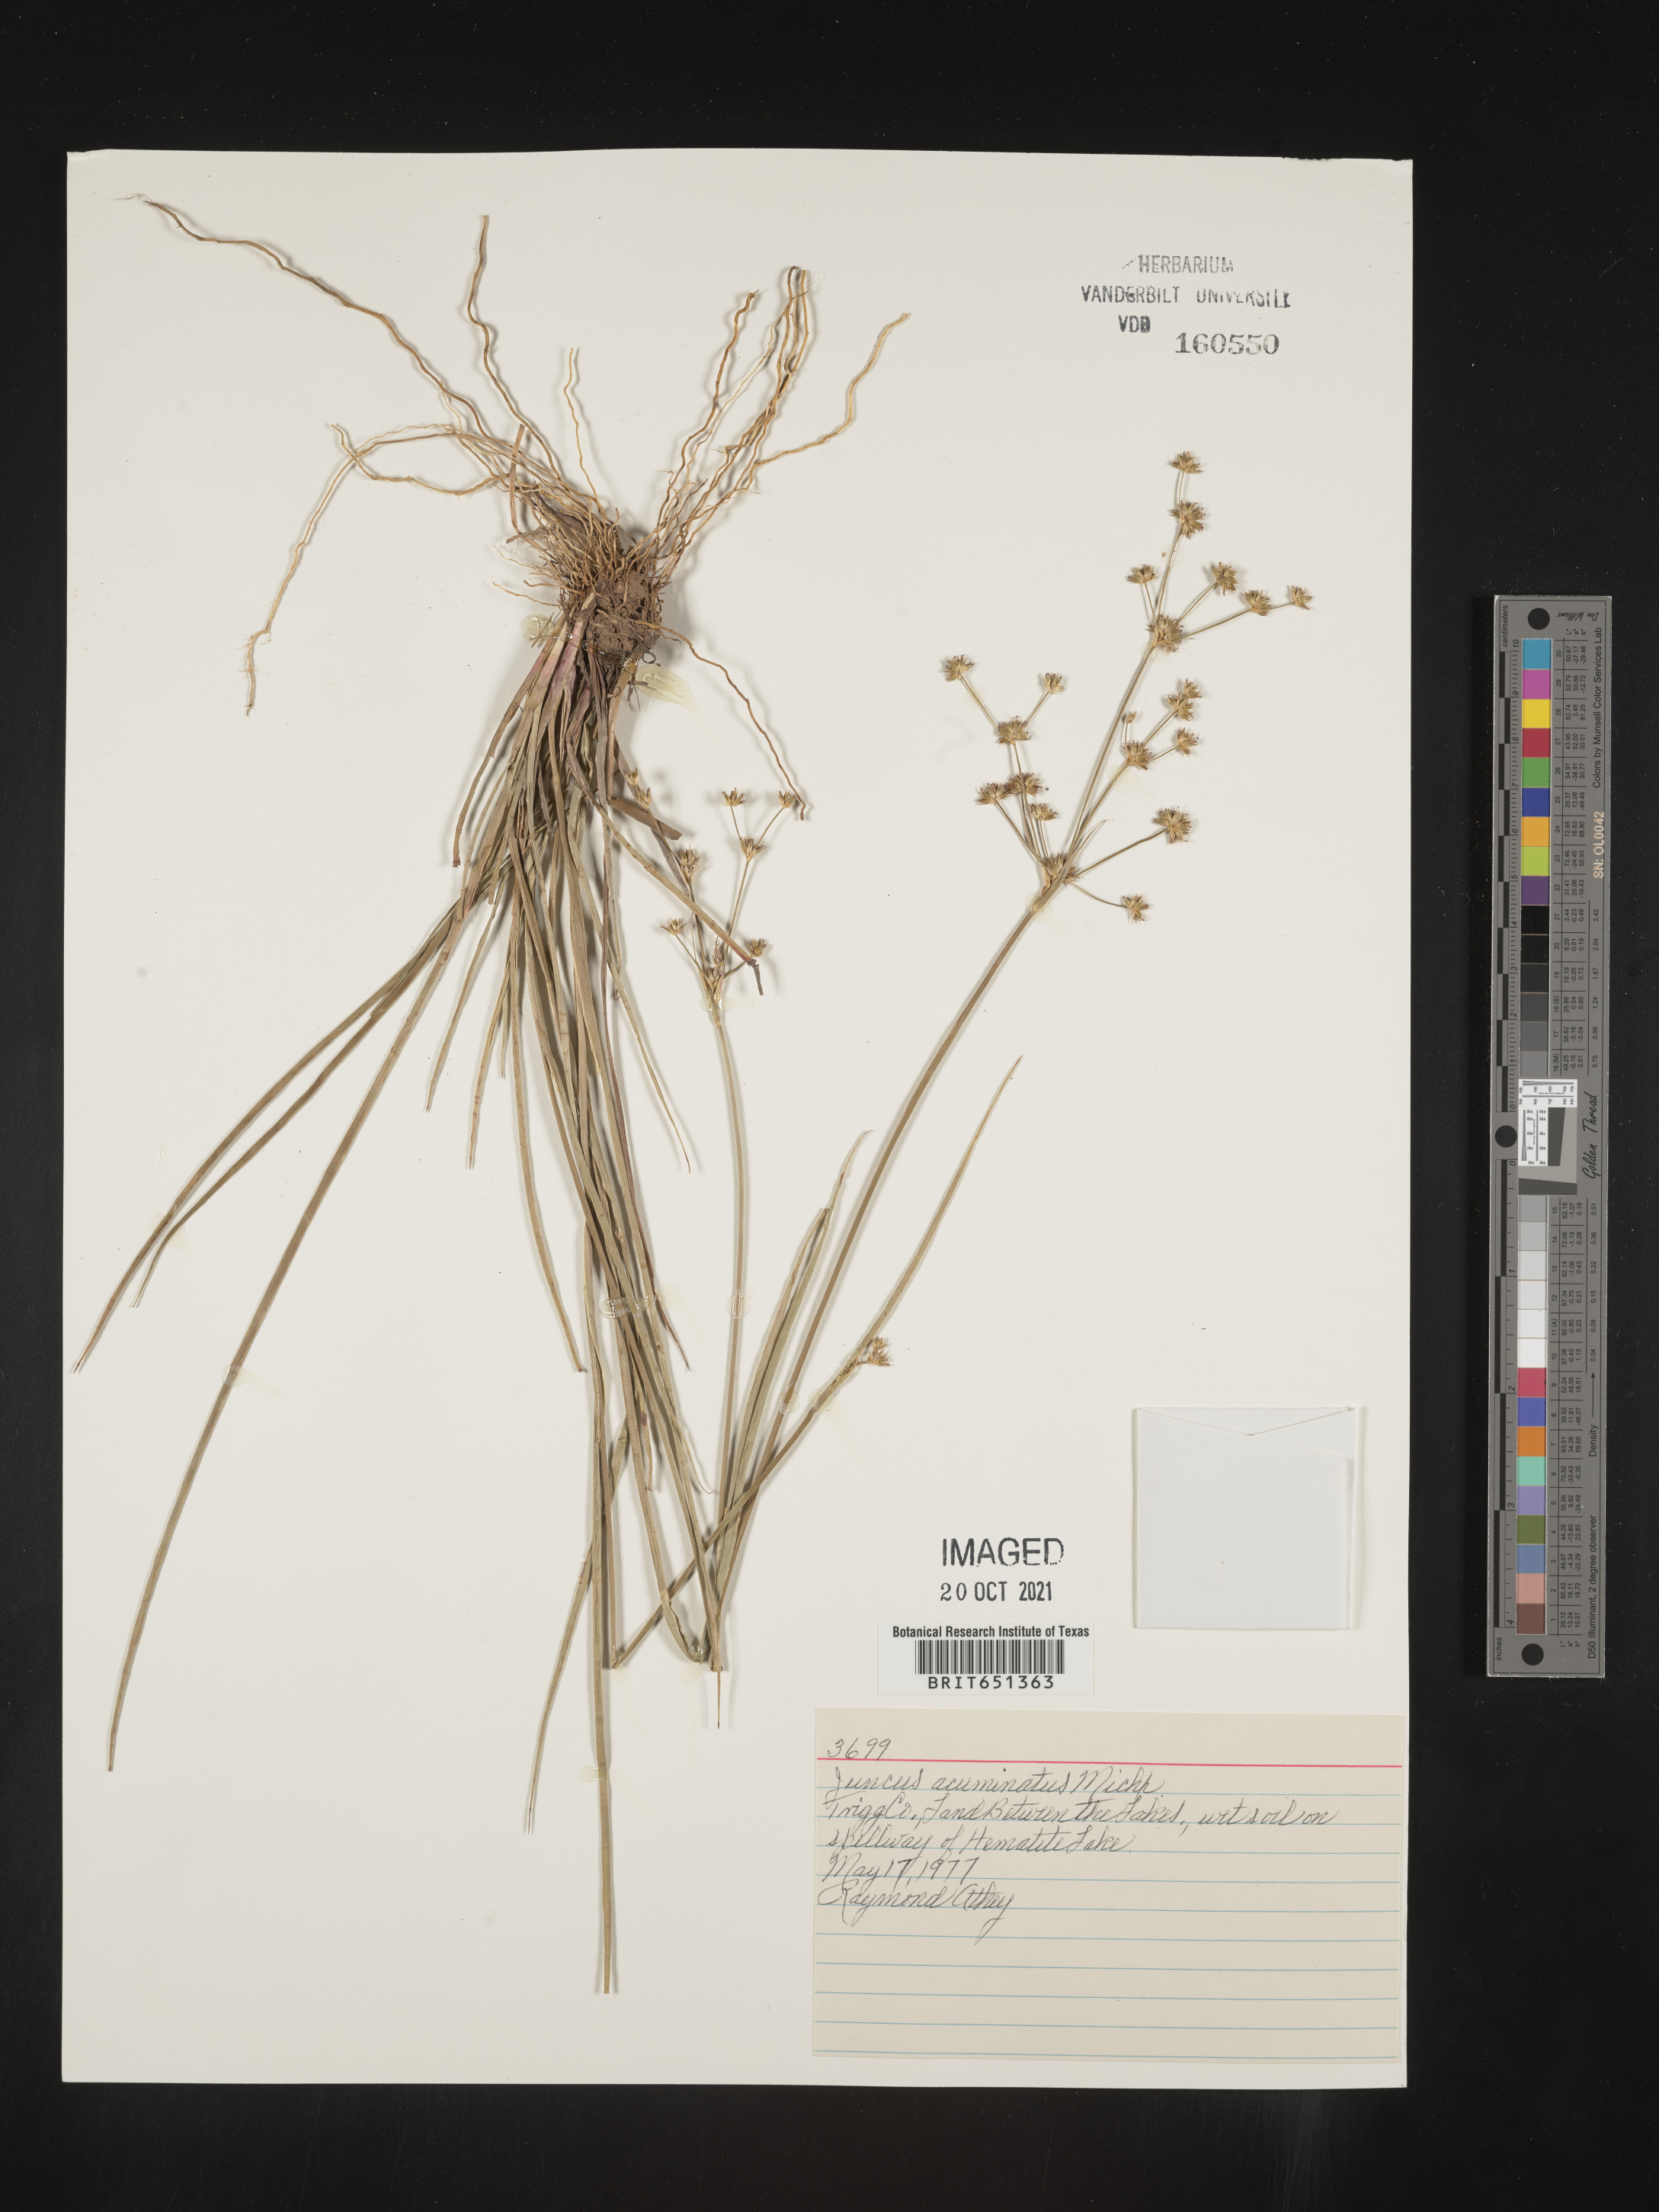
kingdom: Plantae
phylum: Tracheophyta
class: Liliopsida
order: Poales
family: Juncaceae
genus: Juncus
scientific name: Juncus acuminatus
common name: Knotty-leaved rush
